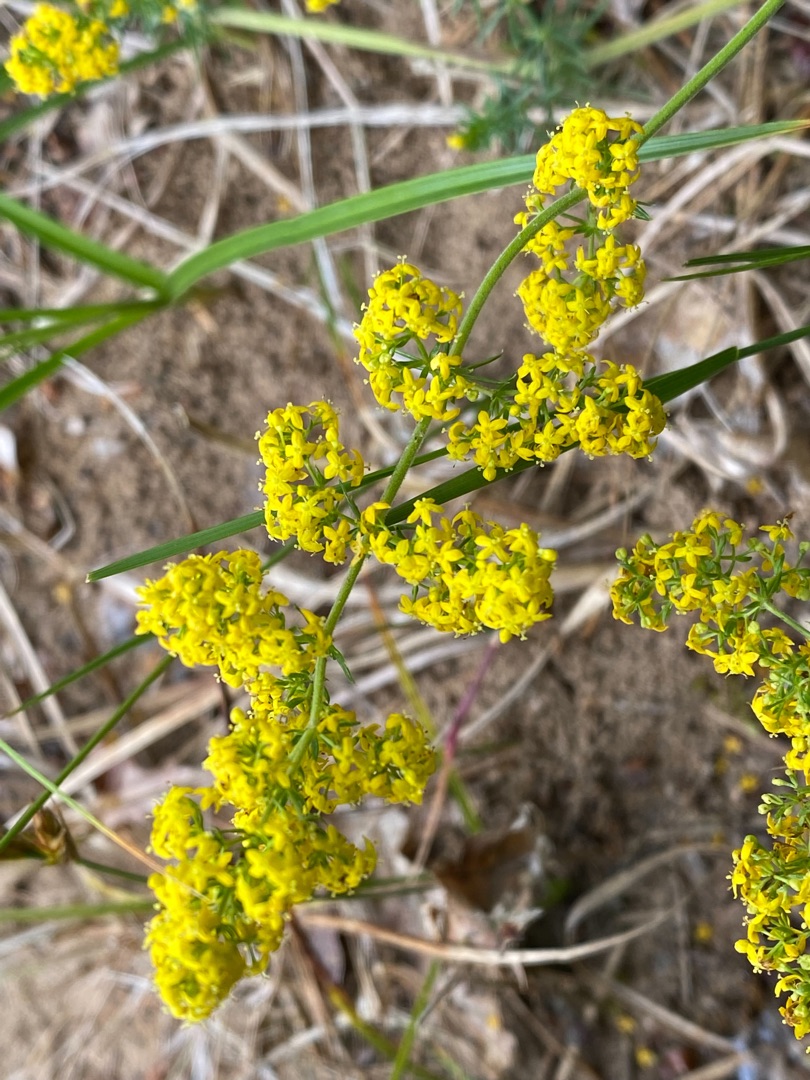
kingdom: Plantae
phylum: Tracheophyta
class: Magnoliopsida
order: Gentianales
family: Rubiaceae
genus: Galium
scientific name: Galium verum
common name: Gul snerre
